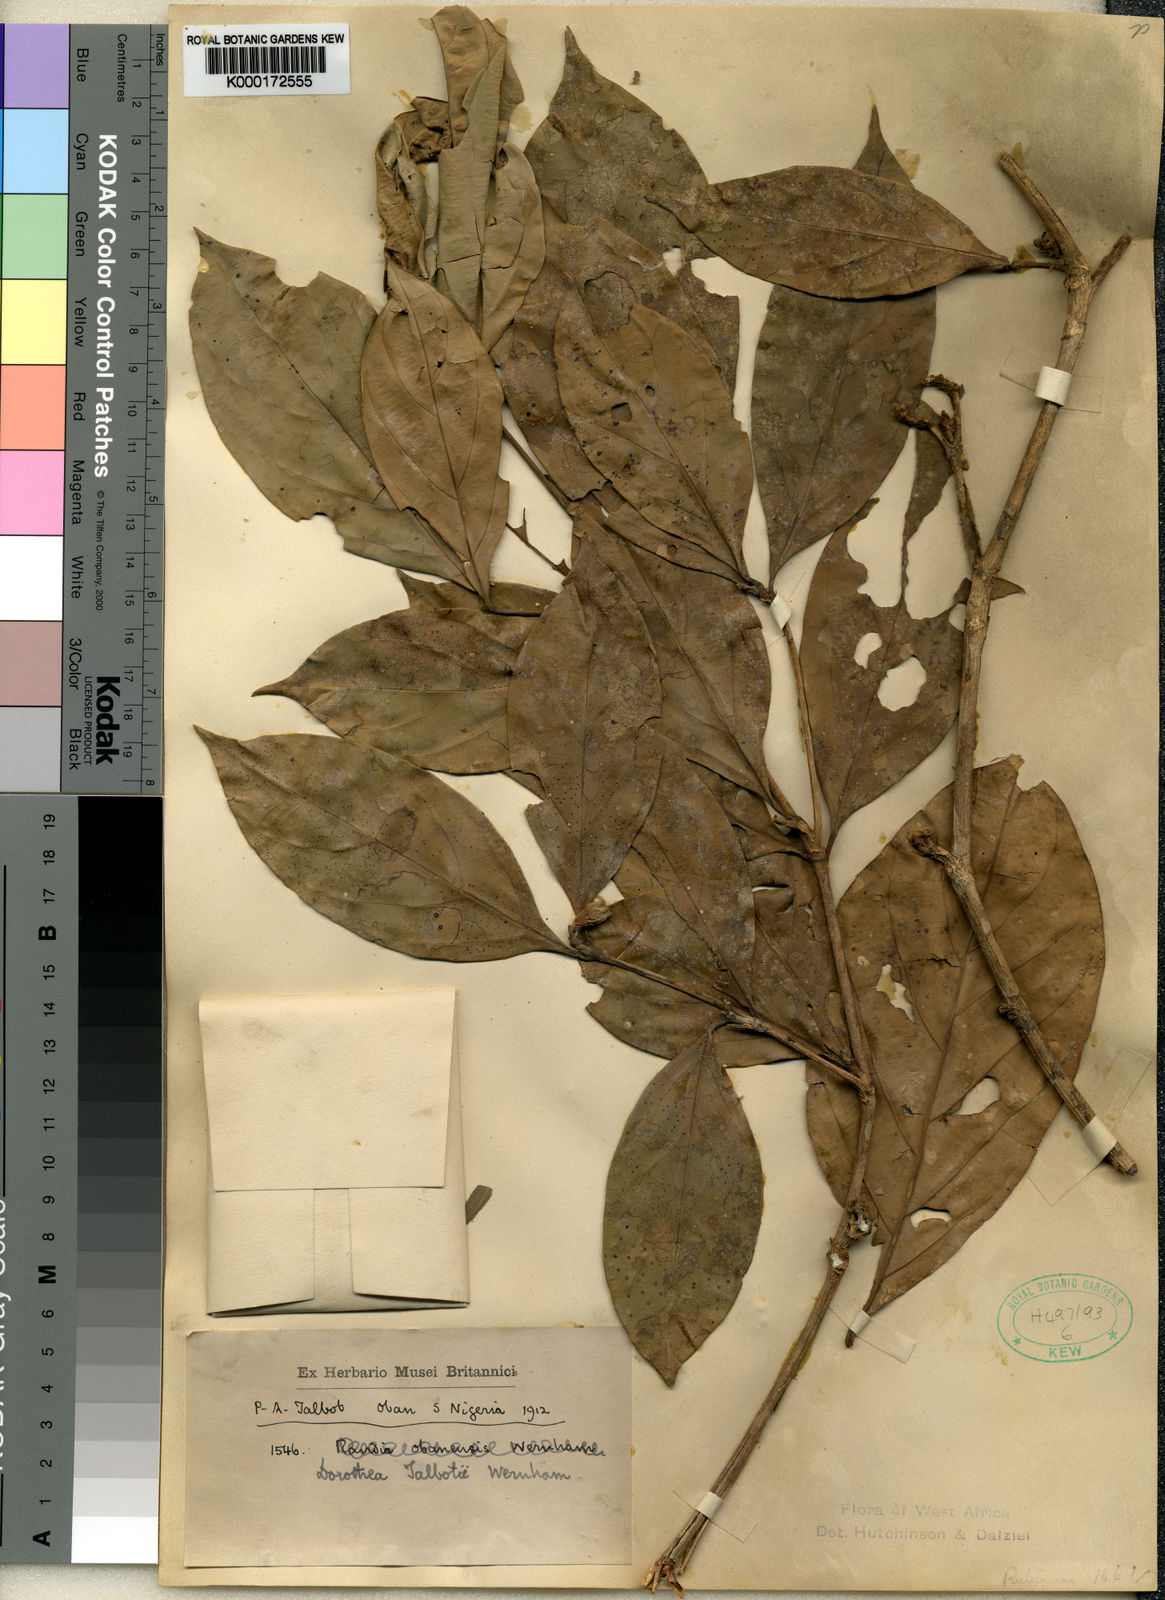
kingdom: Plantae
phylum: Tracheophyta
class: Magnoliopsida
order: Gentianales
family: Rubiaceae
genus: Aulacocalyx
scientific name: Aulacocalyx talbotii
